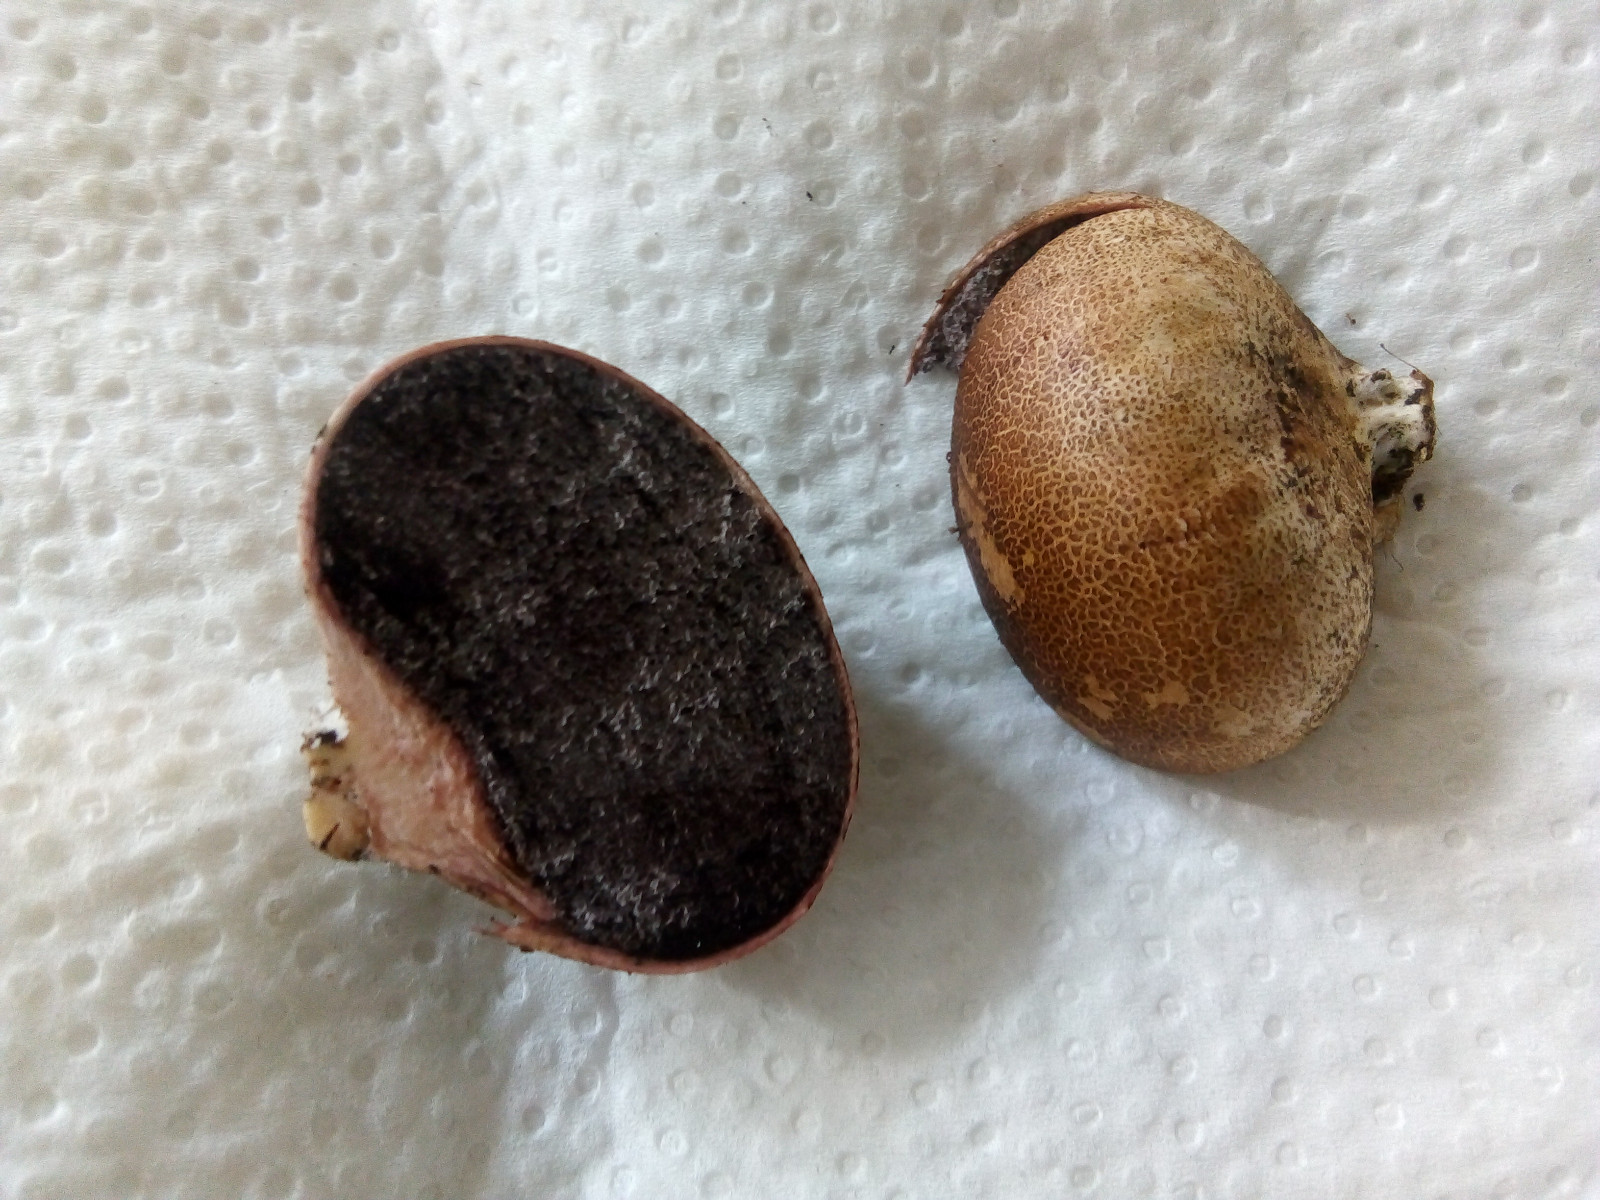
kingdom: Fungi
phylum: Basidiomycota
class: Agaricomycetes
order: Boletales
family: Sclerodermataceae
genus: Scleroderma
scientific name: Scleroderma areolatum
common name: plettet bruskbold
